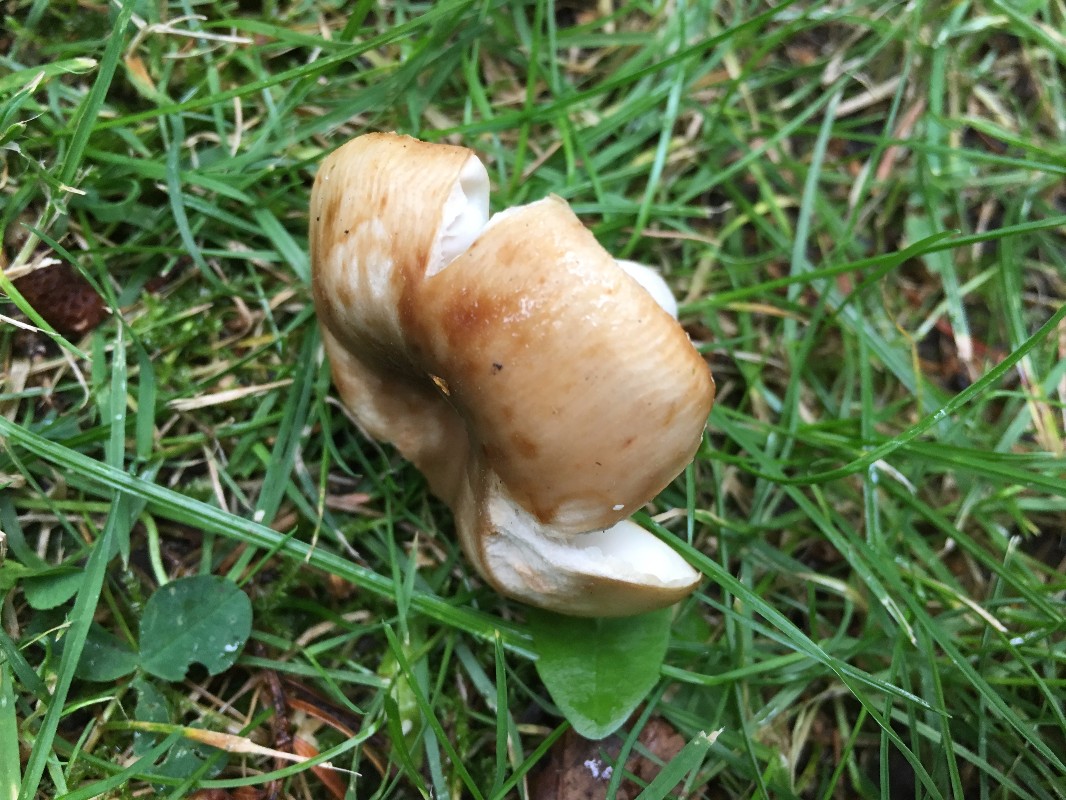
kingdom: Fungi
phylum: Basidiomycota
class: Agaricomycetes
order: Russulales
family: Russulaceae
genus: Russula
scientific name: Russula recondita
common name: mild kam-skørhat
